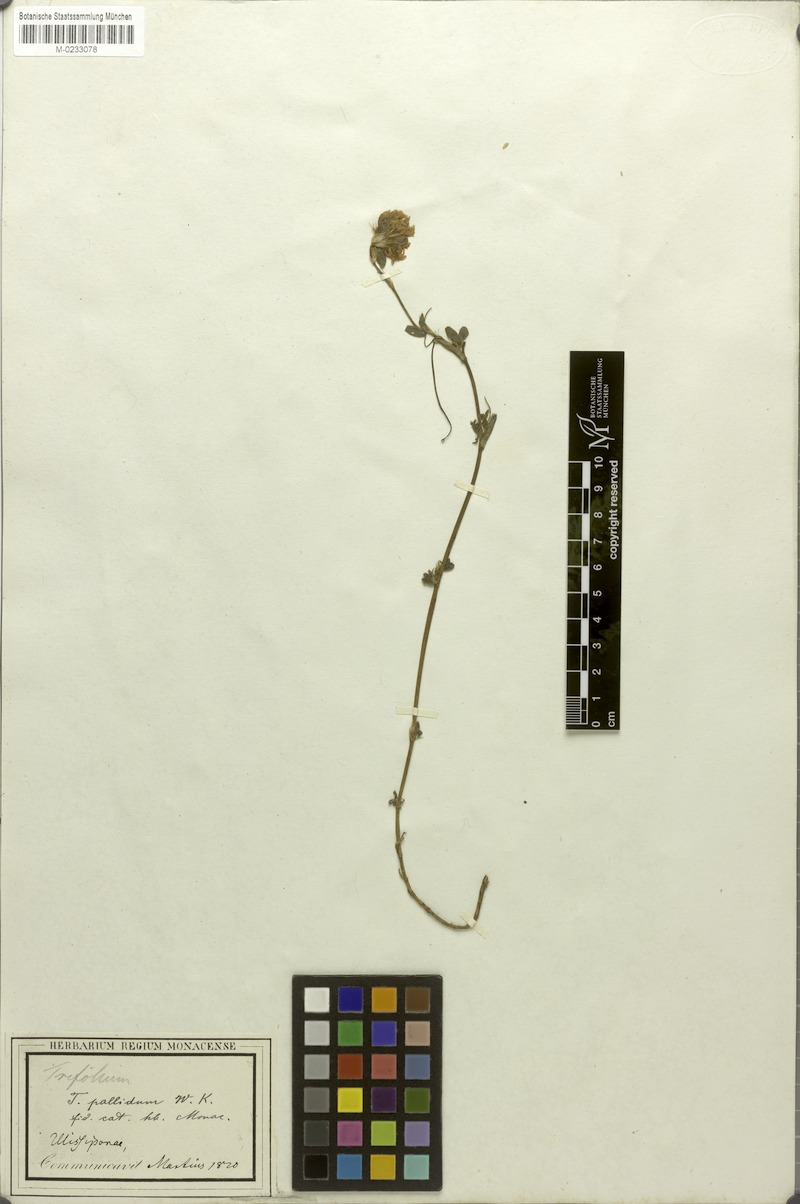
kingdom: Plantae
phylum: Tracheophyta
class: Magnoliopsida
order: Fabales
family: Fabaceae
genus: Trifolium
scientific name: Trifolium pallidum
